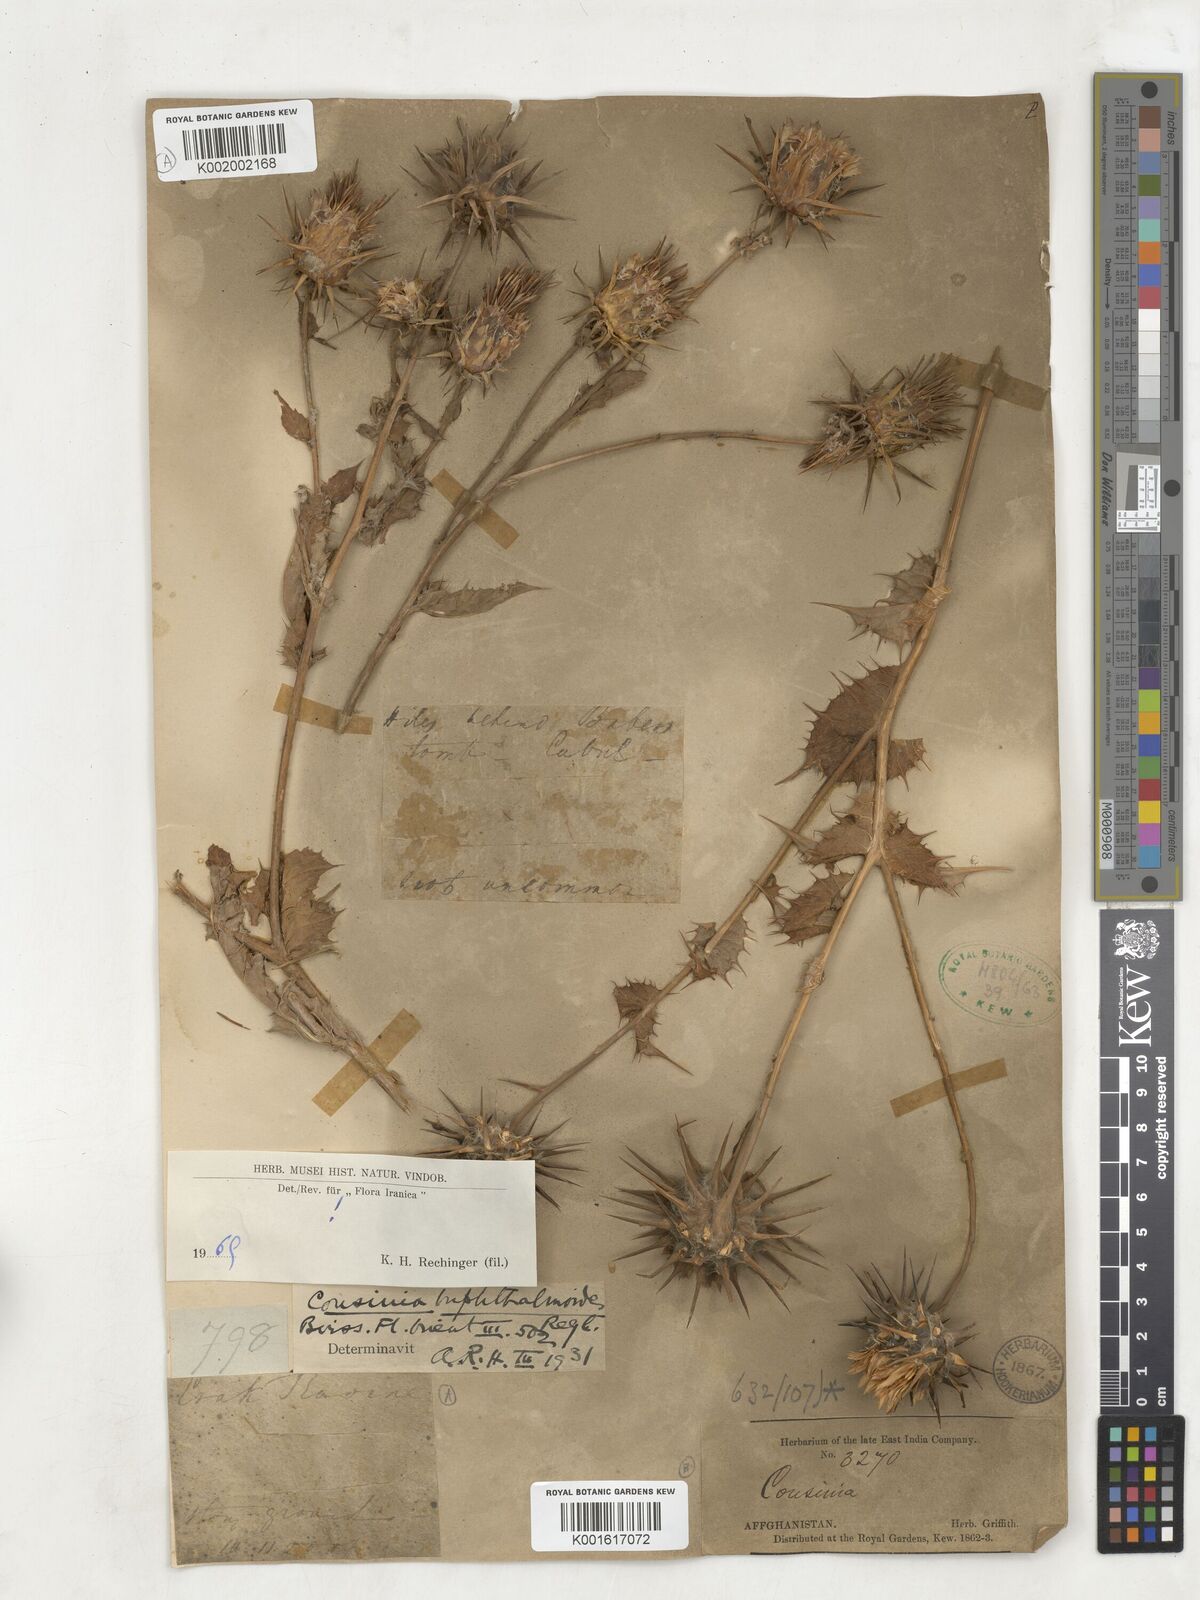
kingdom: Plantae
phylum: Tracheophyta
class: Magnoliopsida
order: Asterales
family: Asteraceae
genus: Cousinia
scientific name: Cousinia buphthalmoides
